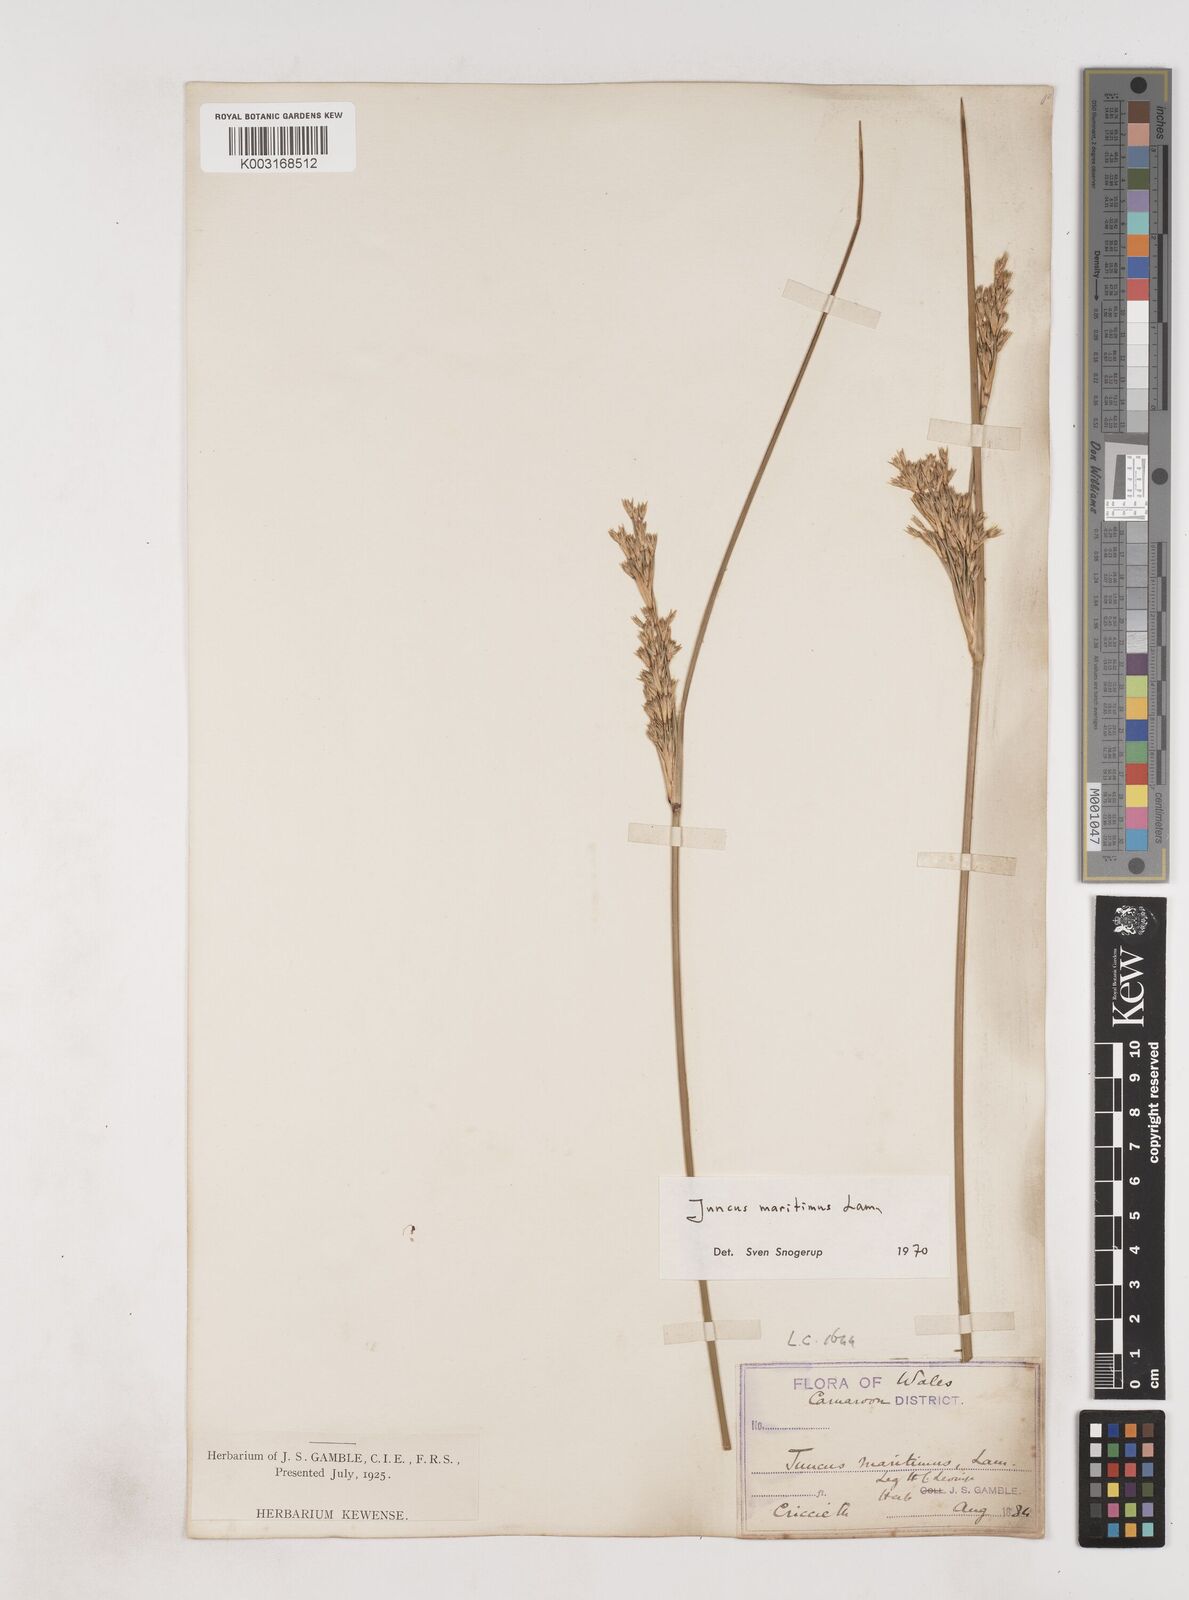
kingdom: Plantae
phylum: Tracheophyta
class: Liliopsida
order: Poales
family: Juncaceae
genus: Juncus
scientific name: Juncus maritimus
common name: Sea rush
